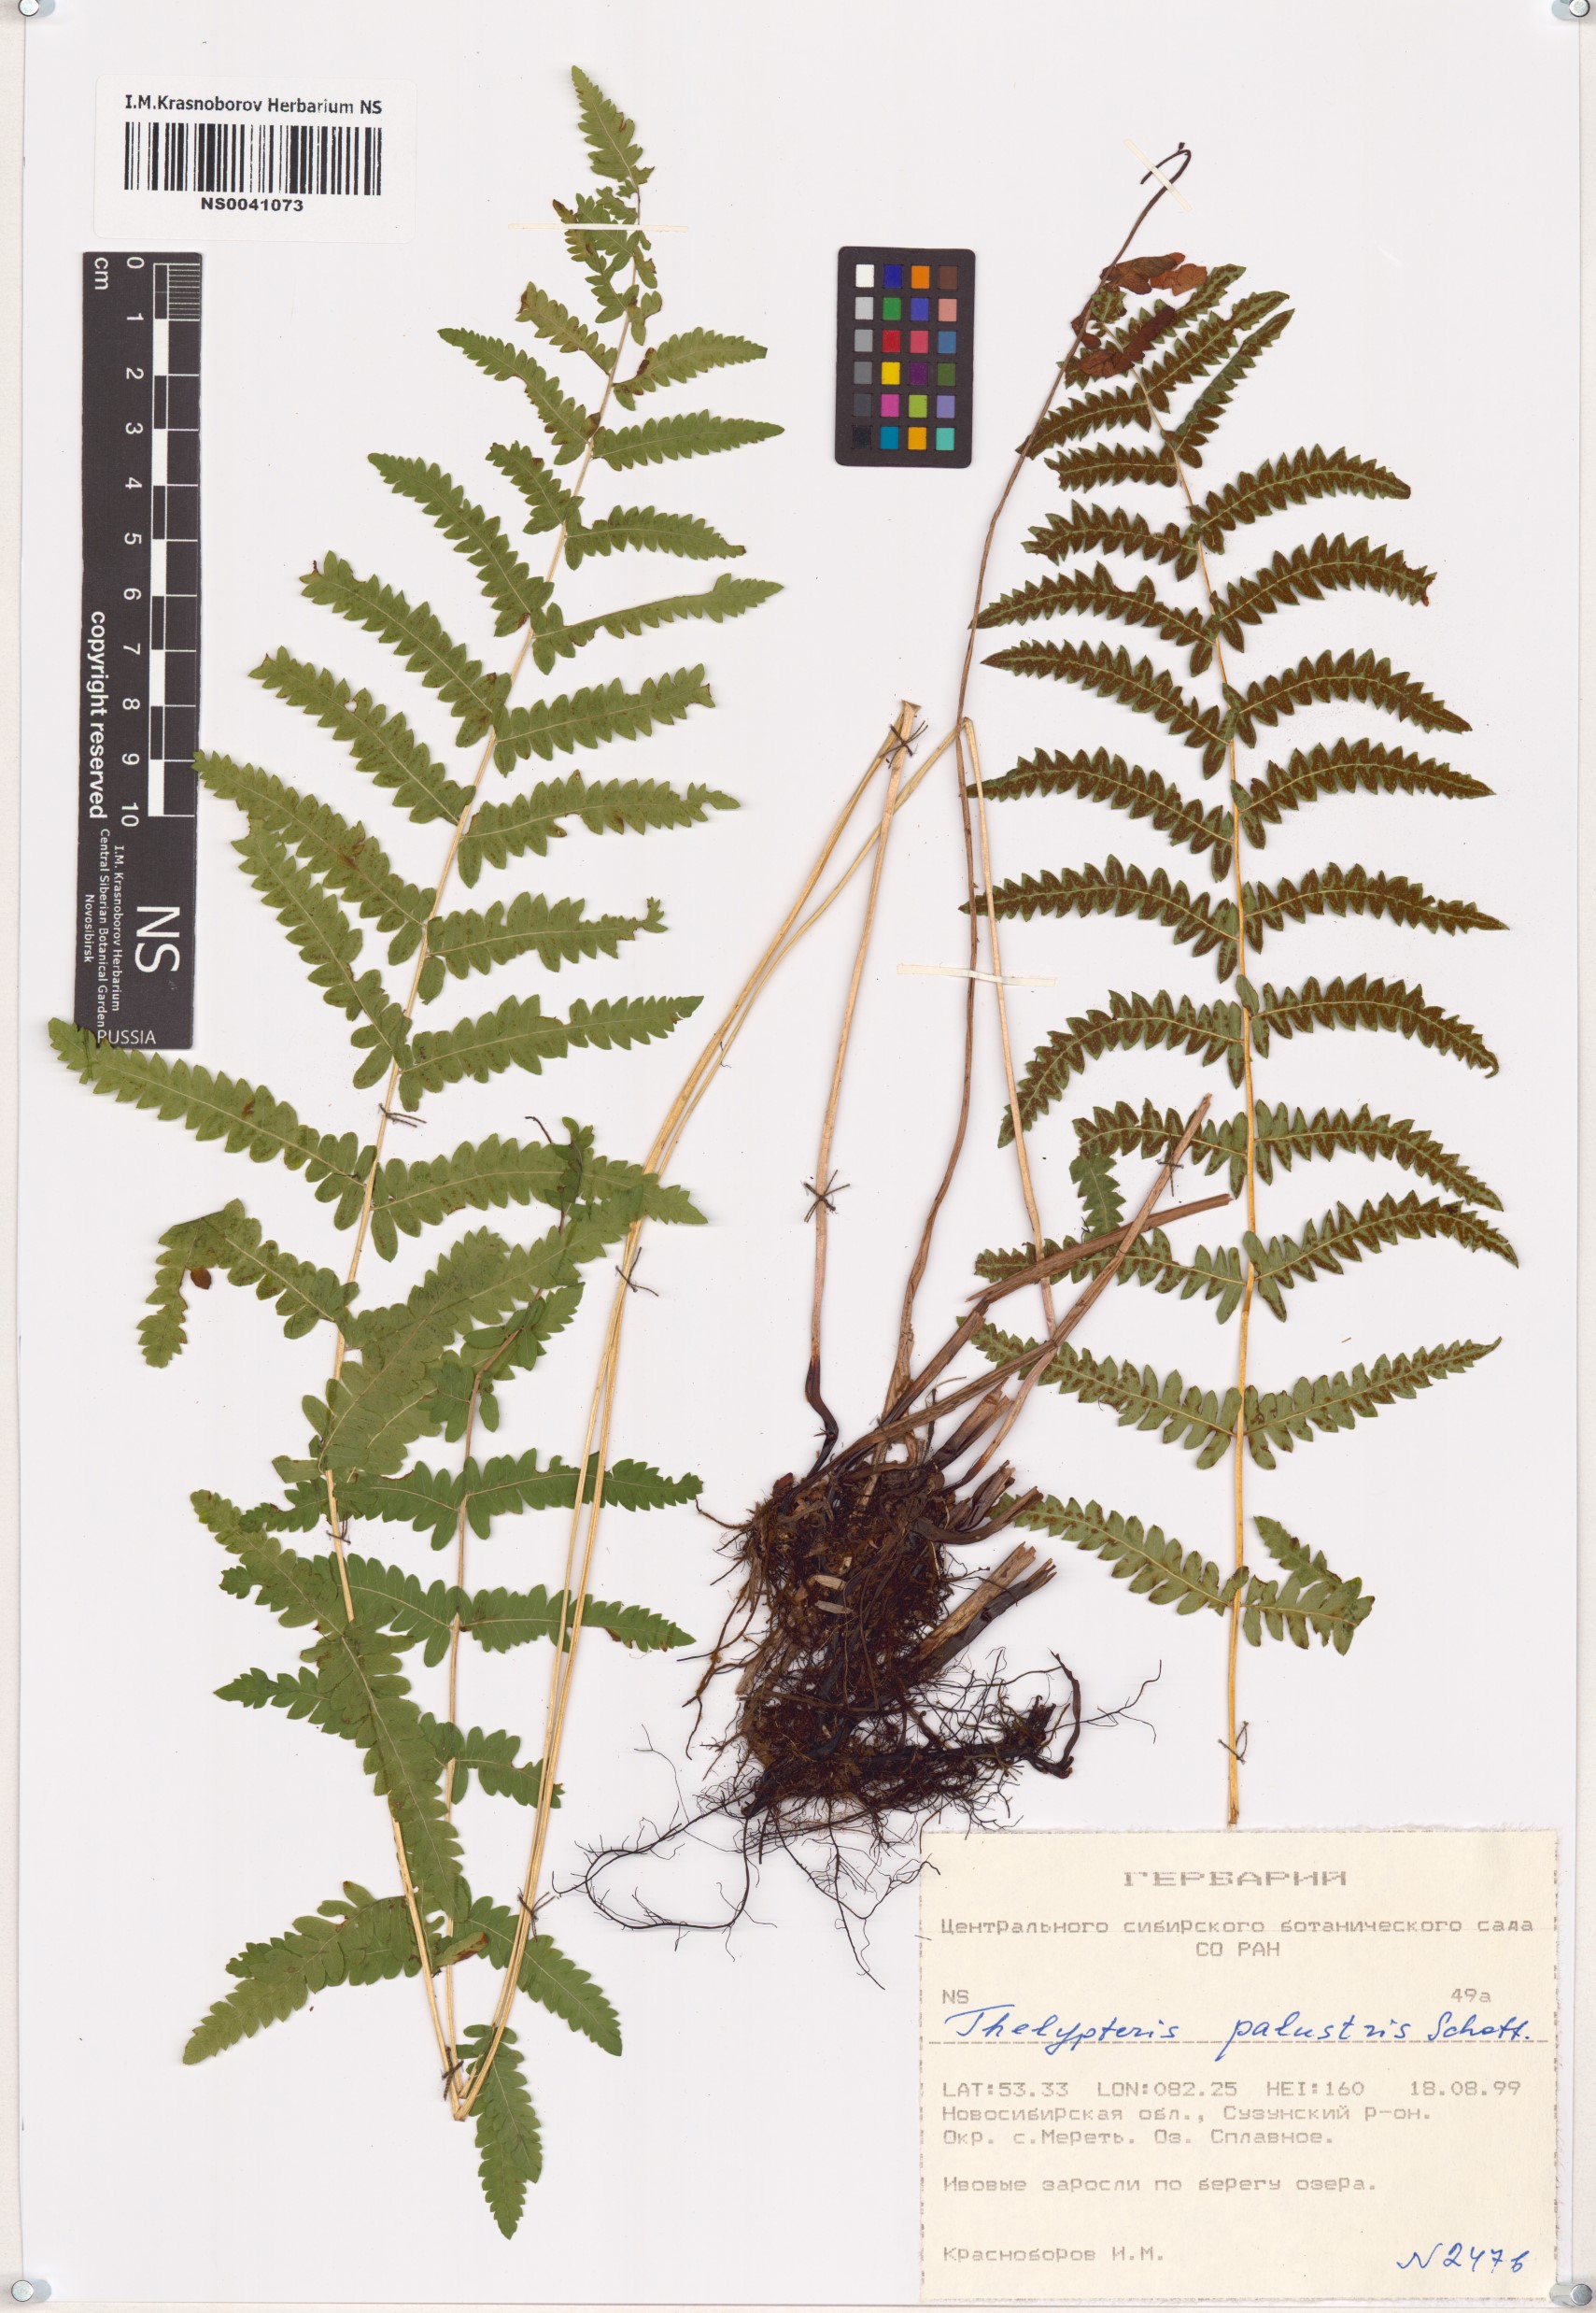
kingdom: Plantae
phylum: Tracheophyta
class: Polypodiopsida
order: Polypodiales
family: Thelypteridaceae
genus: Thelypteris
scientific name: Thelypteris palustris
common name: Marsh fern
